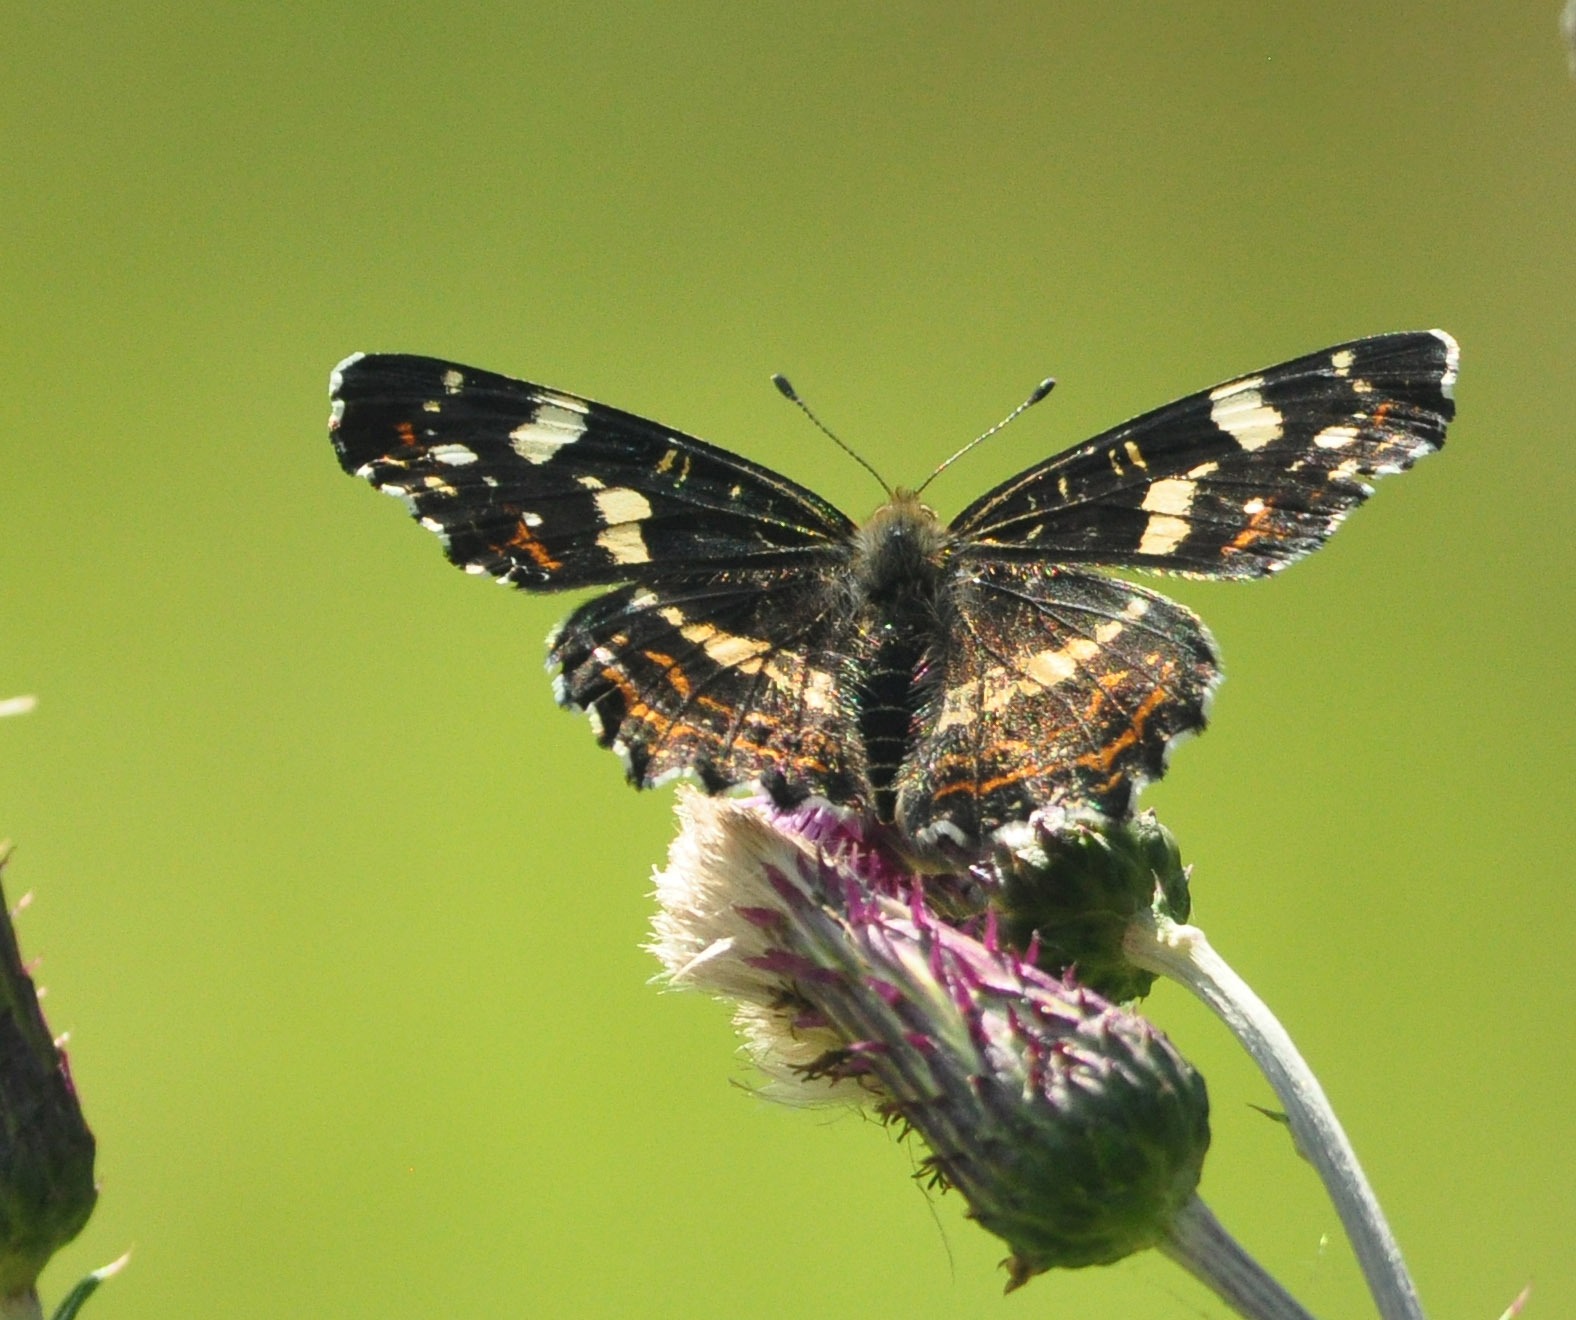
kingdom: Animalia
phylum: Arthropoda
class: Insecta
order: Lepidoptera
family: Nymphalidae
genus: Araschnia
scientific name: Araschnia levana
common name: Nældesommerfugl
